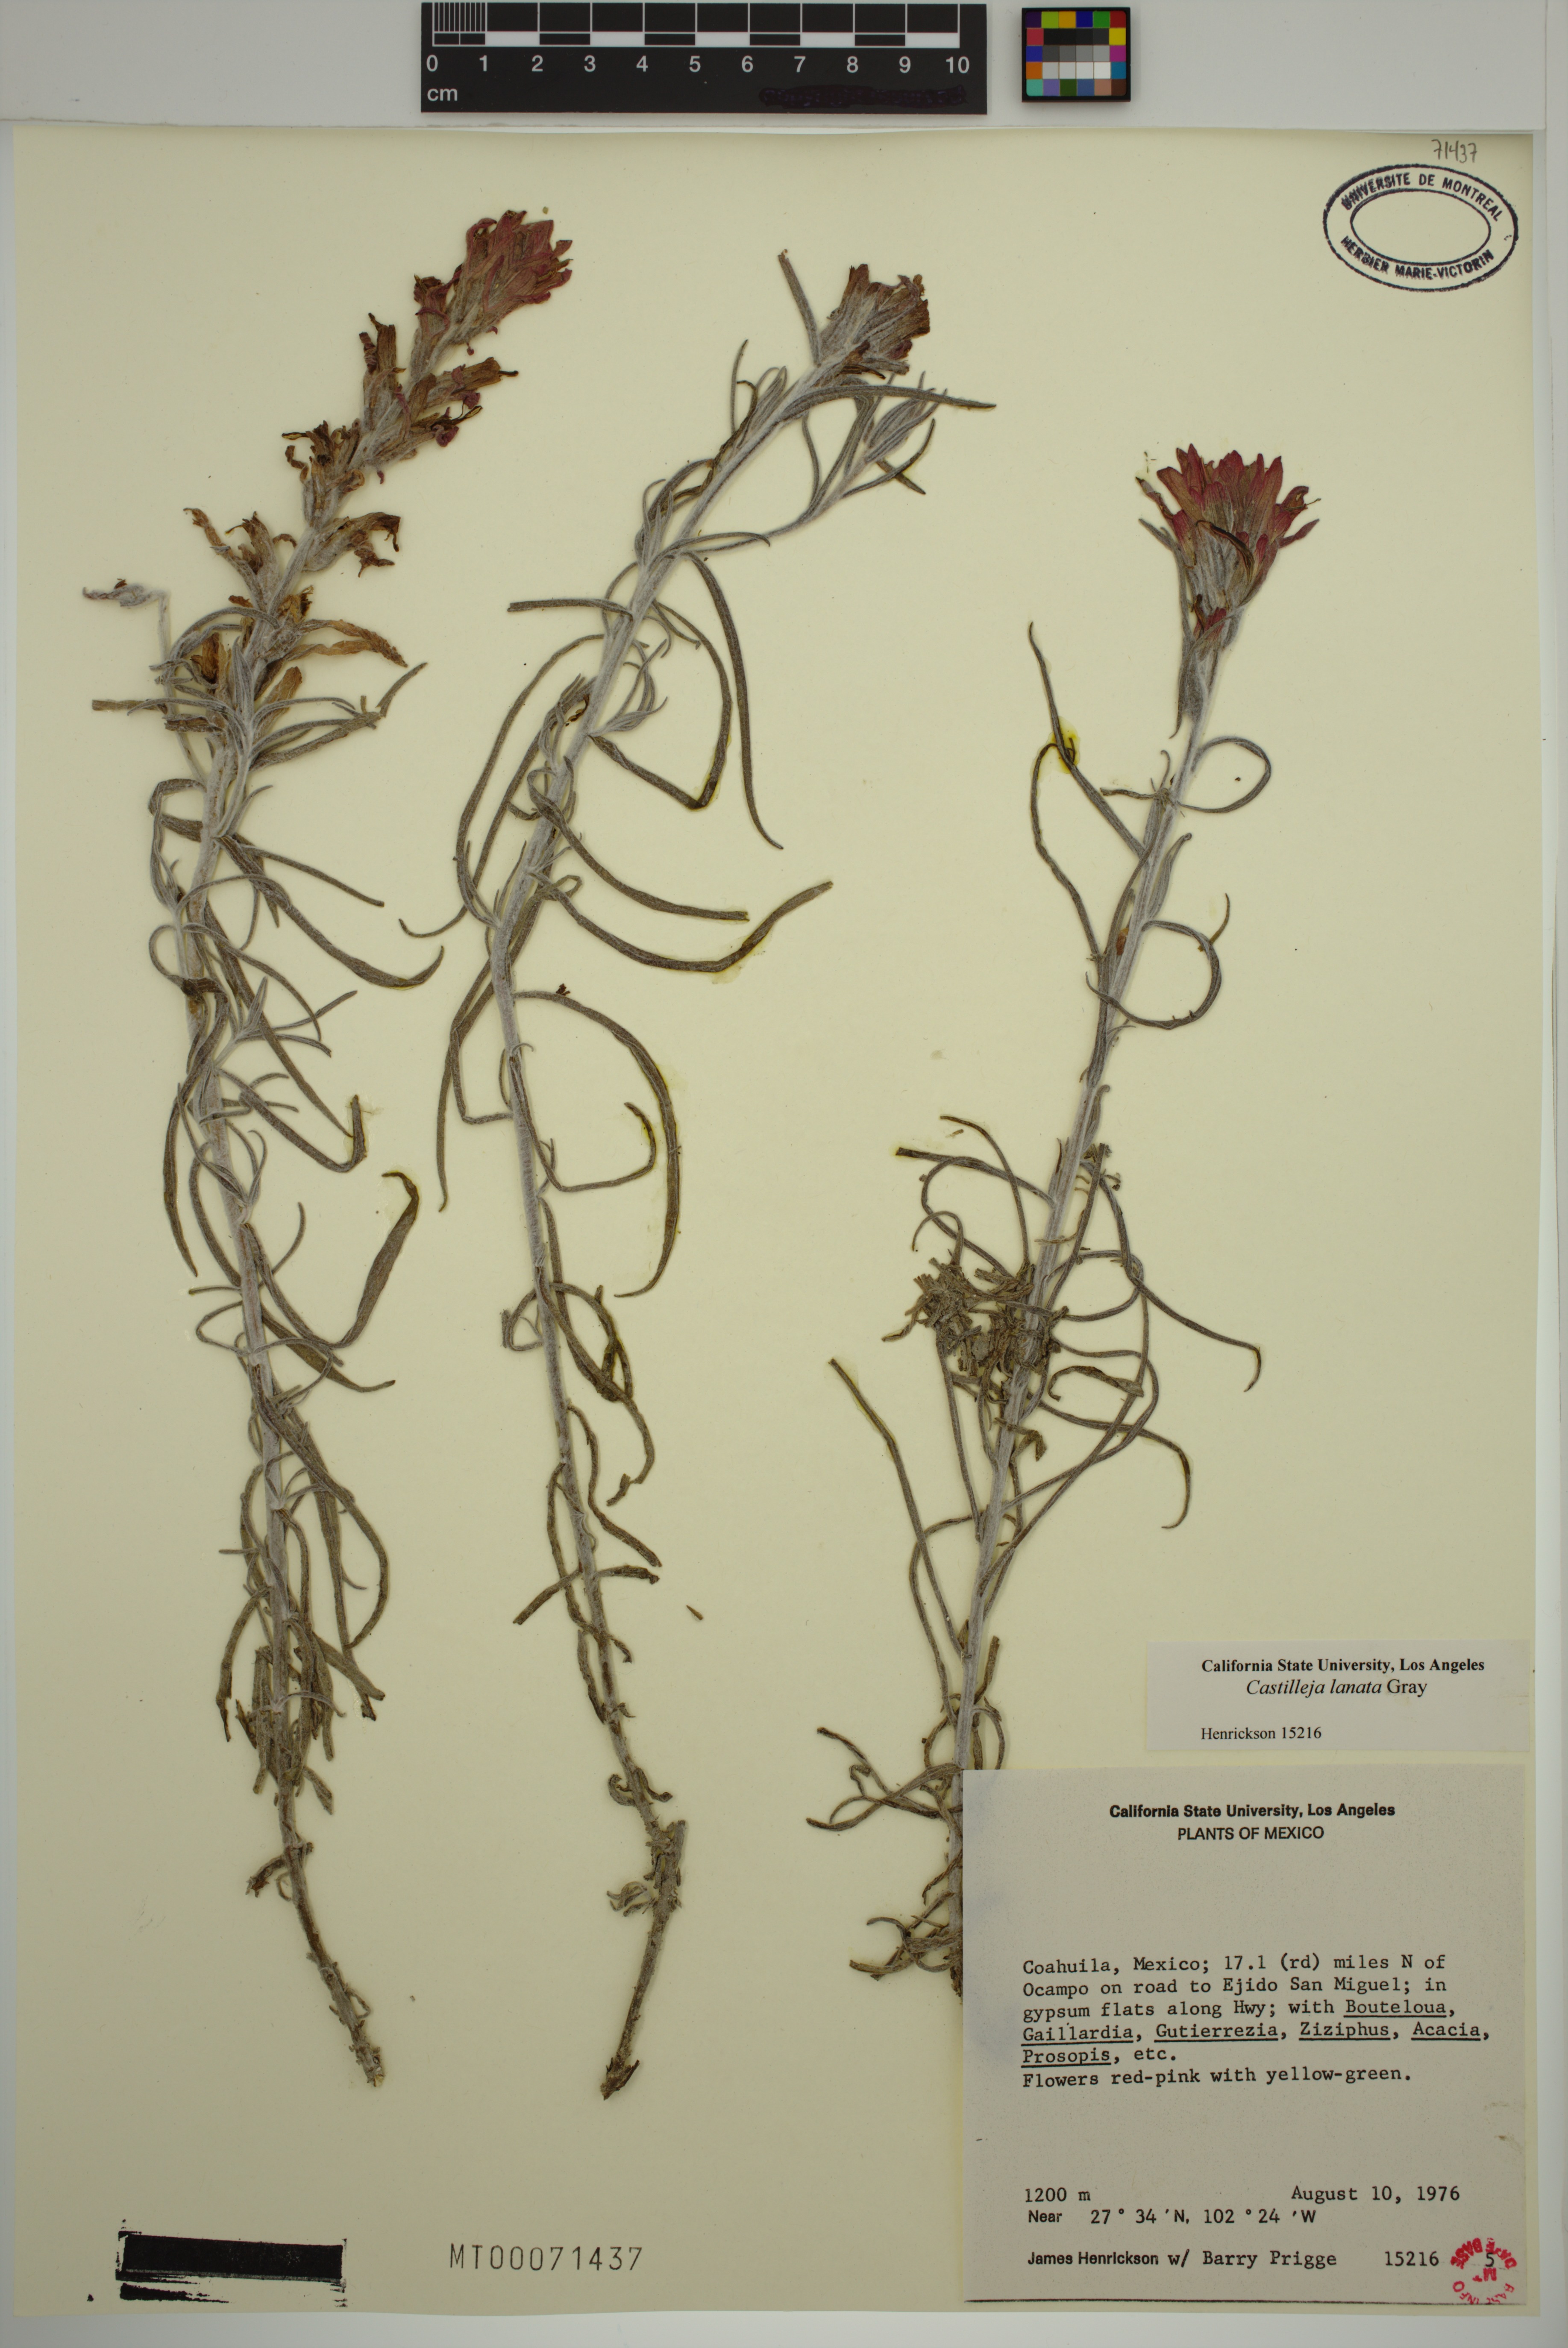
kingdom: Plantae
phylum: Tracheophyta
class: Magnoliopsida
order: Lamiales
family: Orobanchaceae
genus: Castilleja
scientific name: Castilleja lanata
